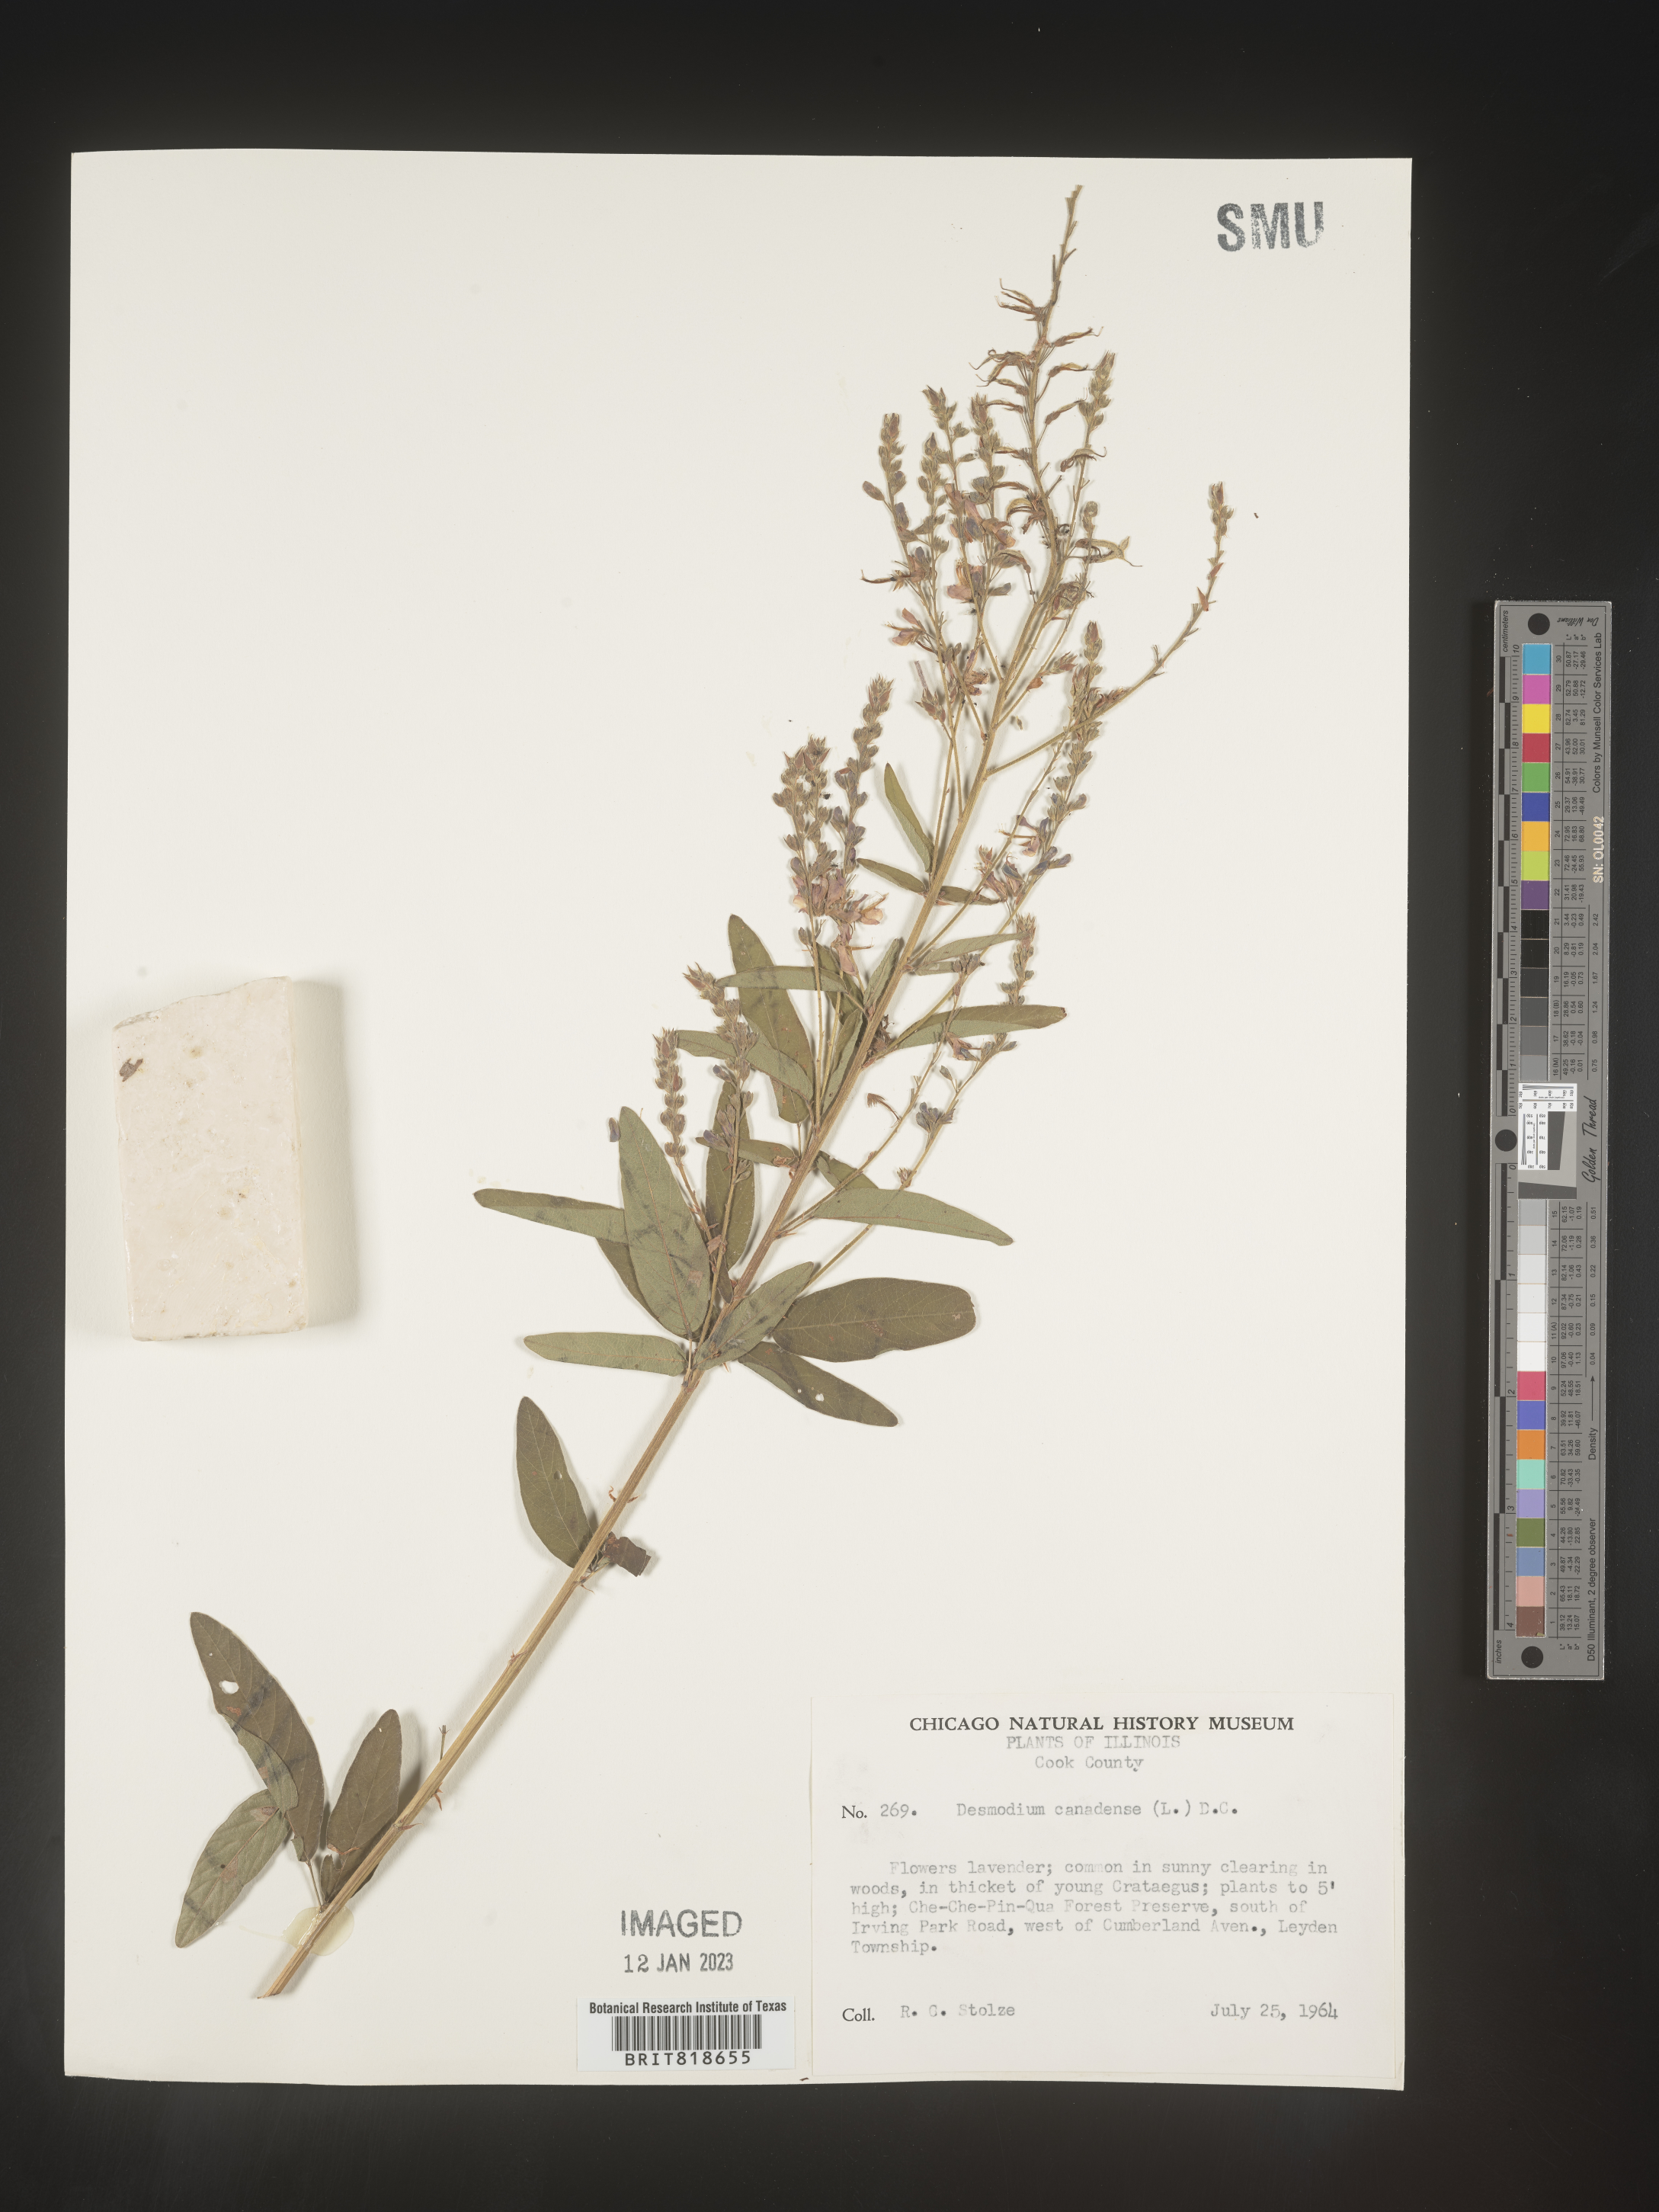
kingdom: Plantae
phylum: Tracheophyta
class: Magnoliopsida
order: Fabales
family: Fabaceae
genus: Desmodium
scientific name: Desmodium canadense
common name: Canada tick-trefoil
